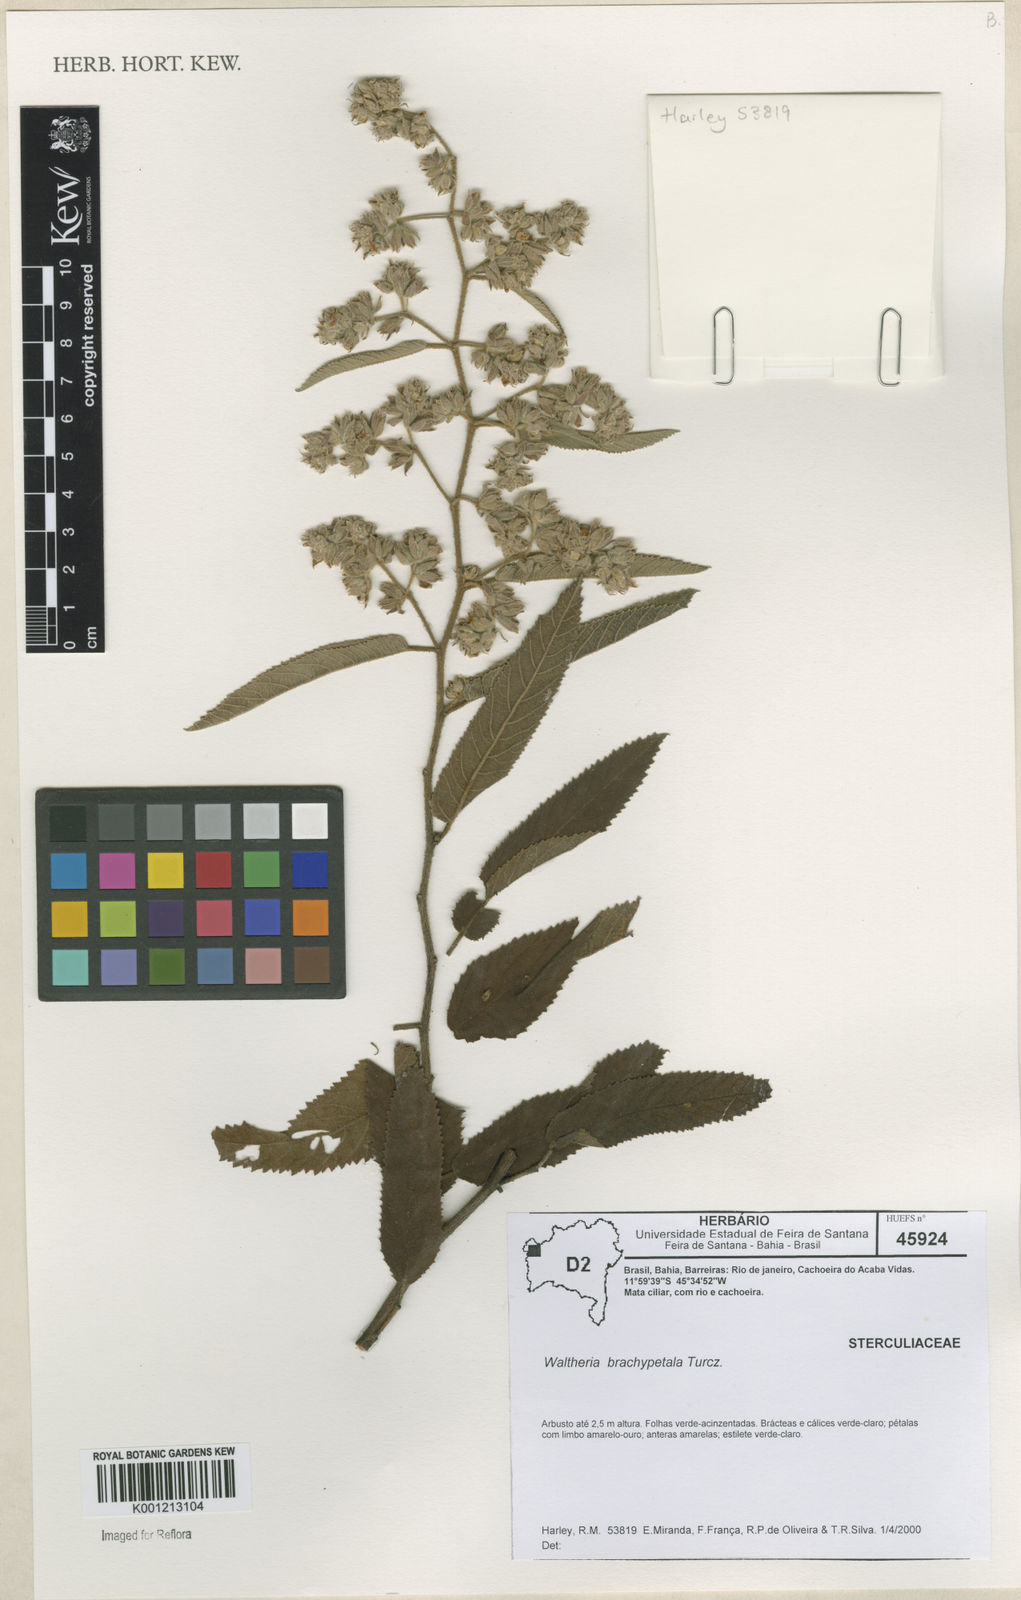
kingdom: Plantae
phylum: Tracheophyta
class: Magnoliopsida
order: Malvales
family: Malvaceae
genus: Waltheria
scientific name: Waltheria ferruginea
